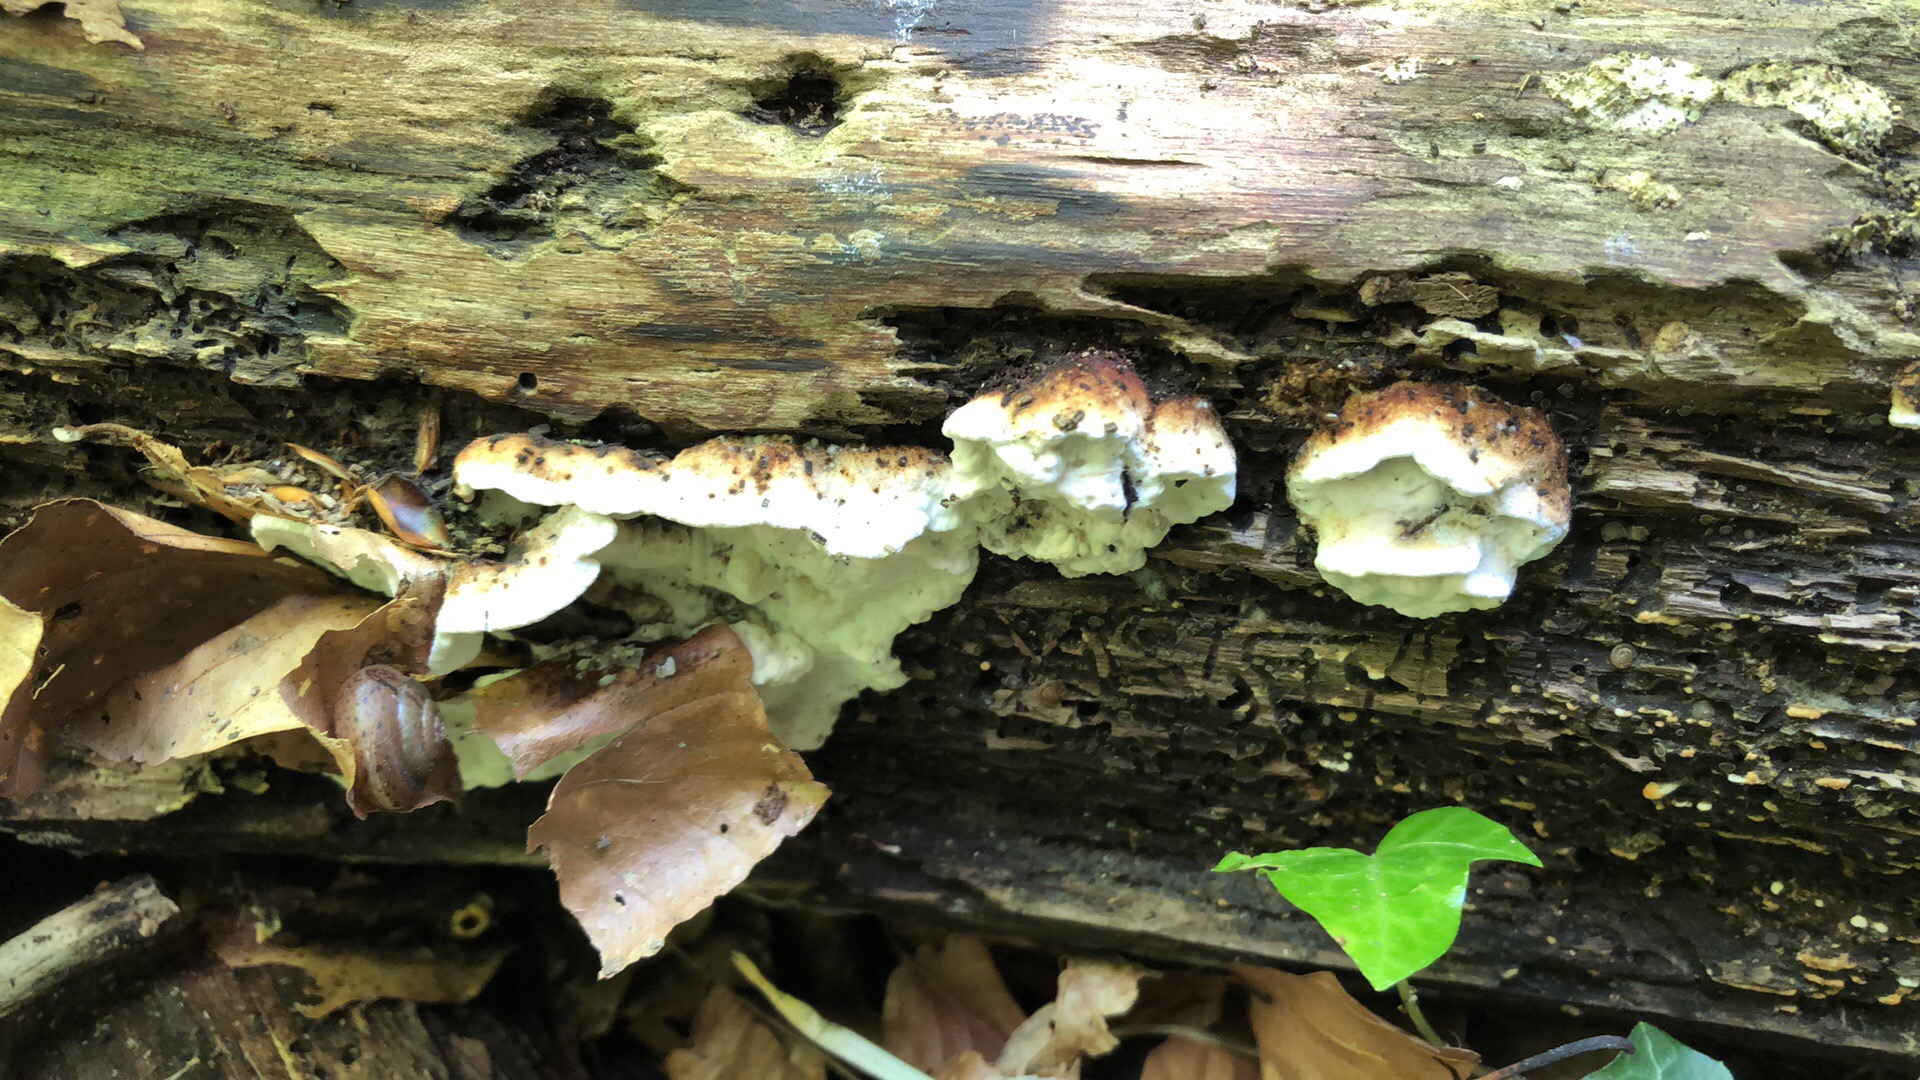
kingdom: Fungi
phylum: Basidiomycota
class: Agaricomycetes
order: Polyporales
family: Incrustoporiaceae
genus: Skeletocutis
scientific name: Skeletocutis nemoralis
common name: stor krystalporesvamp
